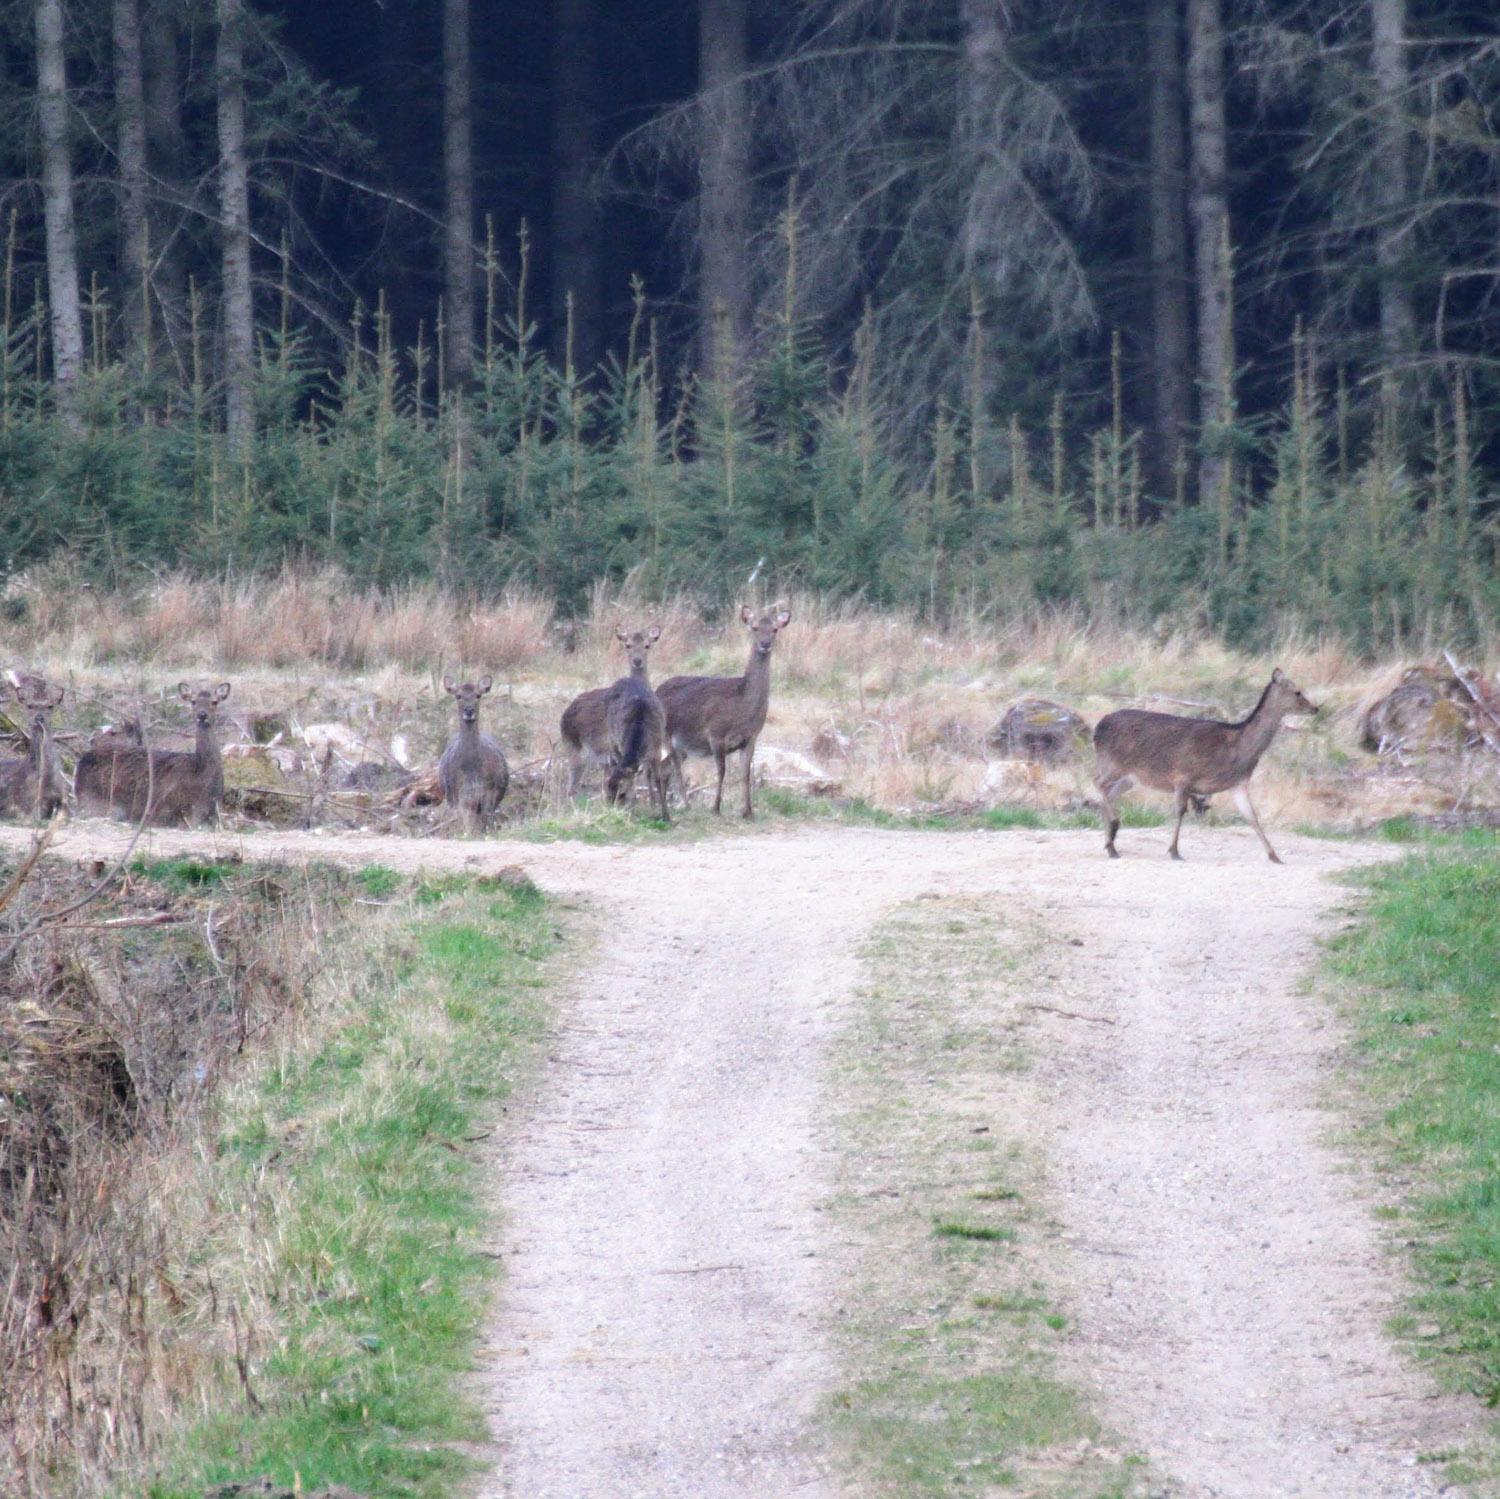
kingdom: Animalia
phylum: Chordata
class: Mammalia
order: Artiodactyla
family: Cervidae
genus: Cervus
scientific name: Cervus nippon
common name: Sika
